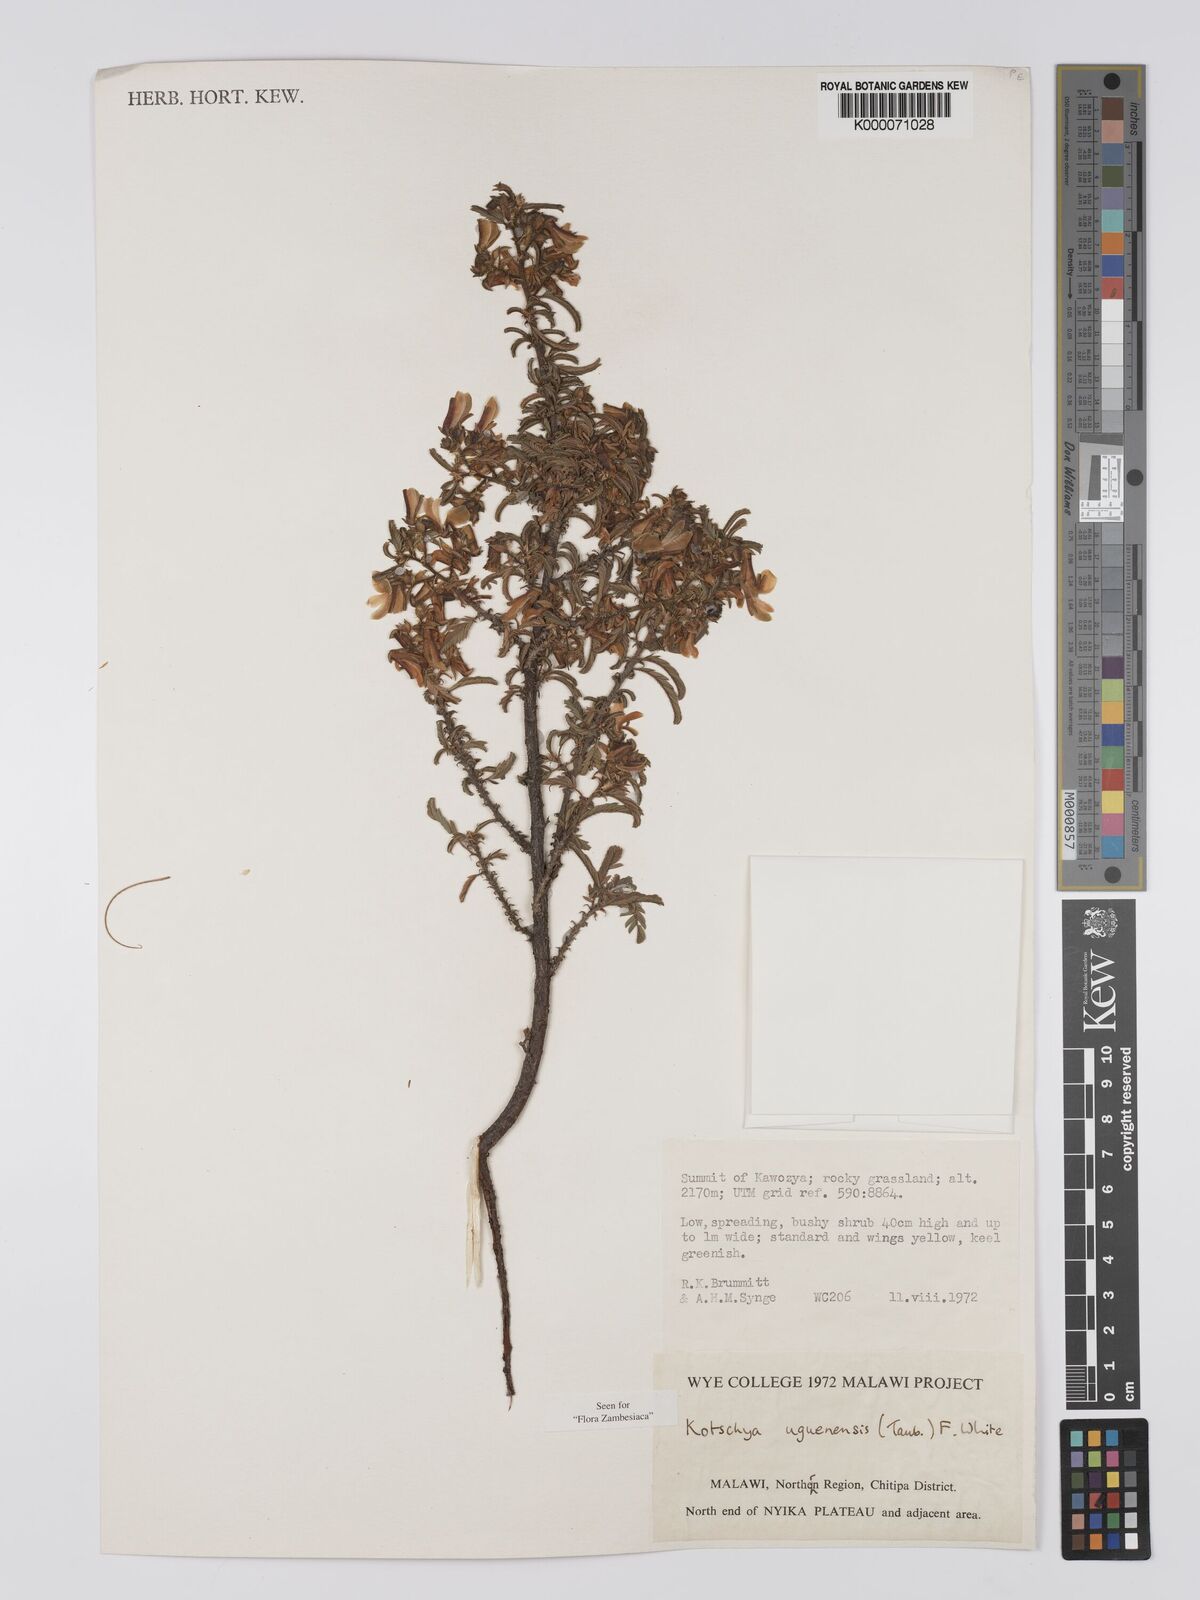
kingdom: Plantae
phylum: Tracheophyta
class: Magnoliopsida
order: Fabales
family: Fabaceae
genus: Kotschya
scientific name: Kotschya uguenensis
